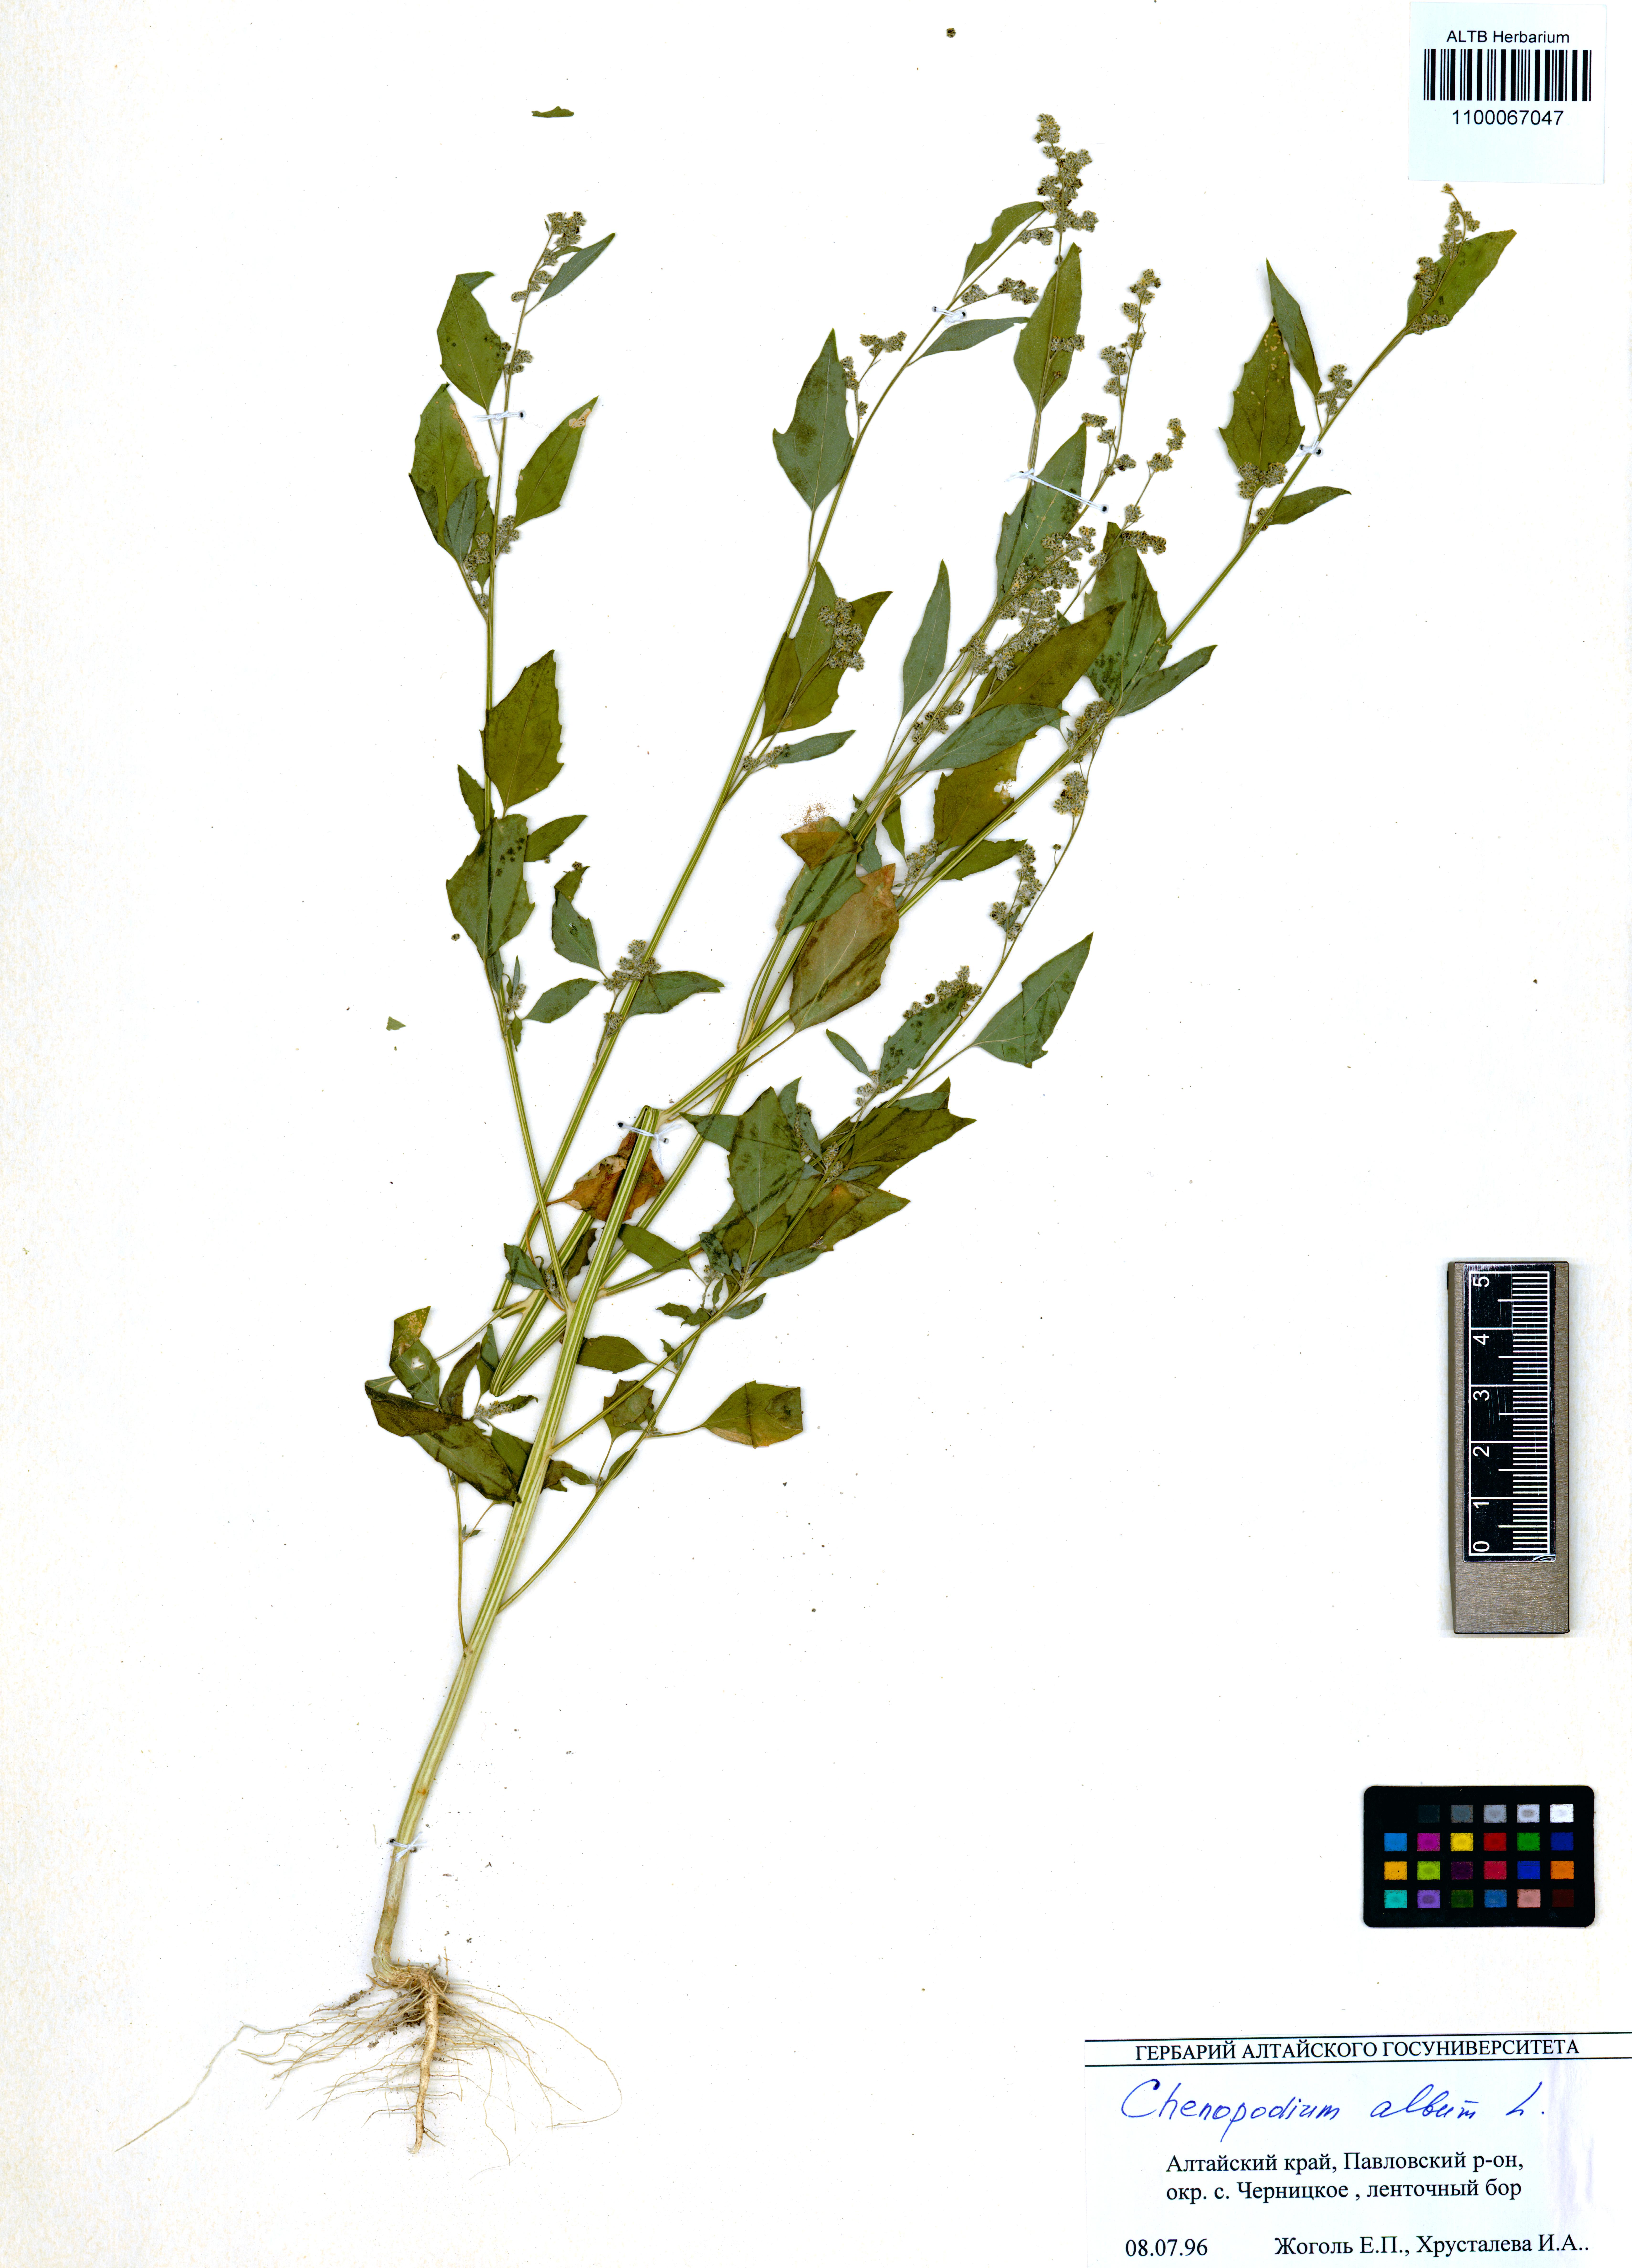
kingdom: Plantae
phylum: Tracheophyta
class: Magnoliopsida
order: Caryophyllales
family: Amaranthaceae
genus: Chenopodium
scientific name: Chenopodium album
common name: Fat-hen
